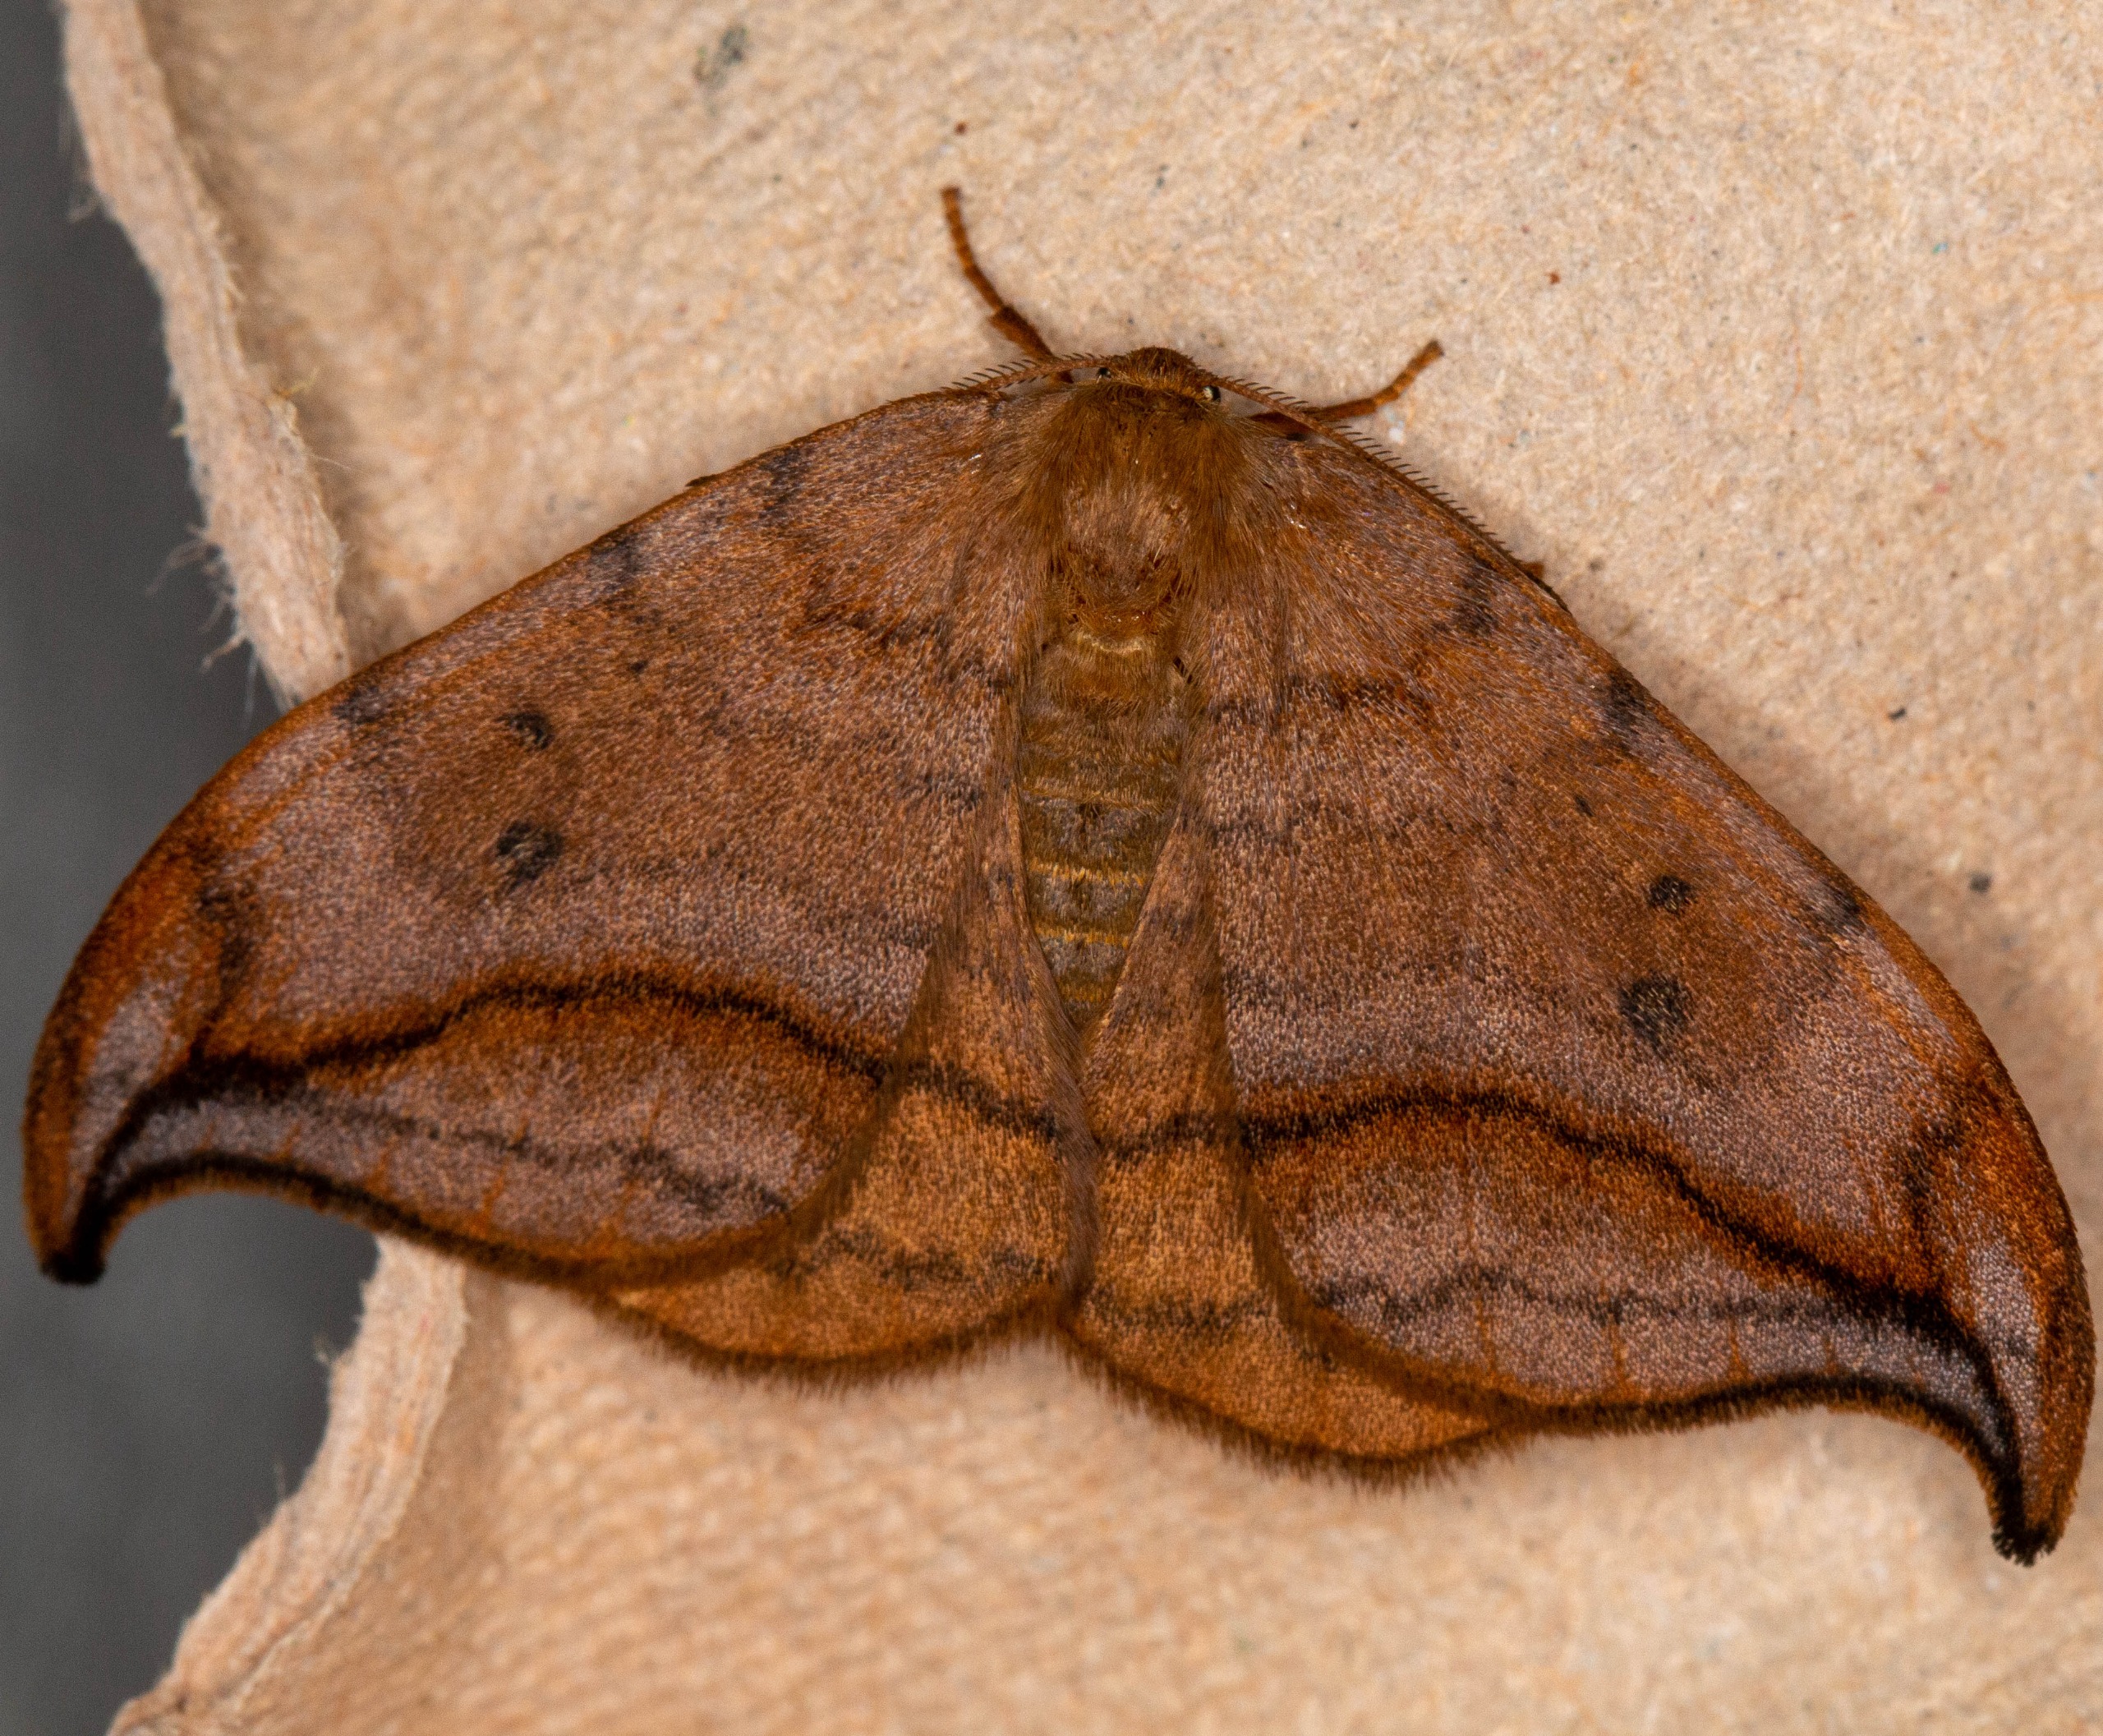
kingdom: Animalia
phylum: Arthropoda
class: Insecta
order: Lepidoptera
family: Drepanidae
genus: Drepana
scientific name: Drepana curvatula
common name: Brun seglvinge
